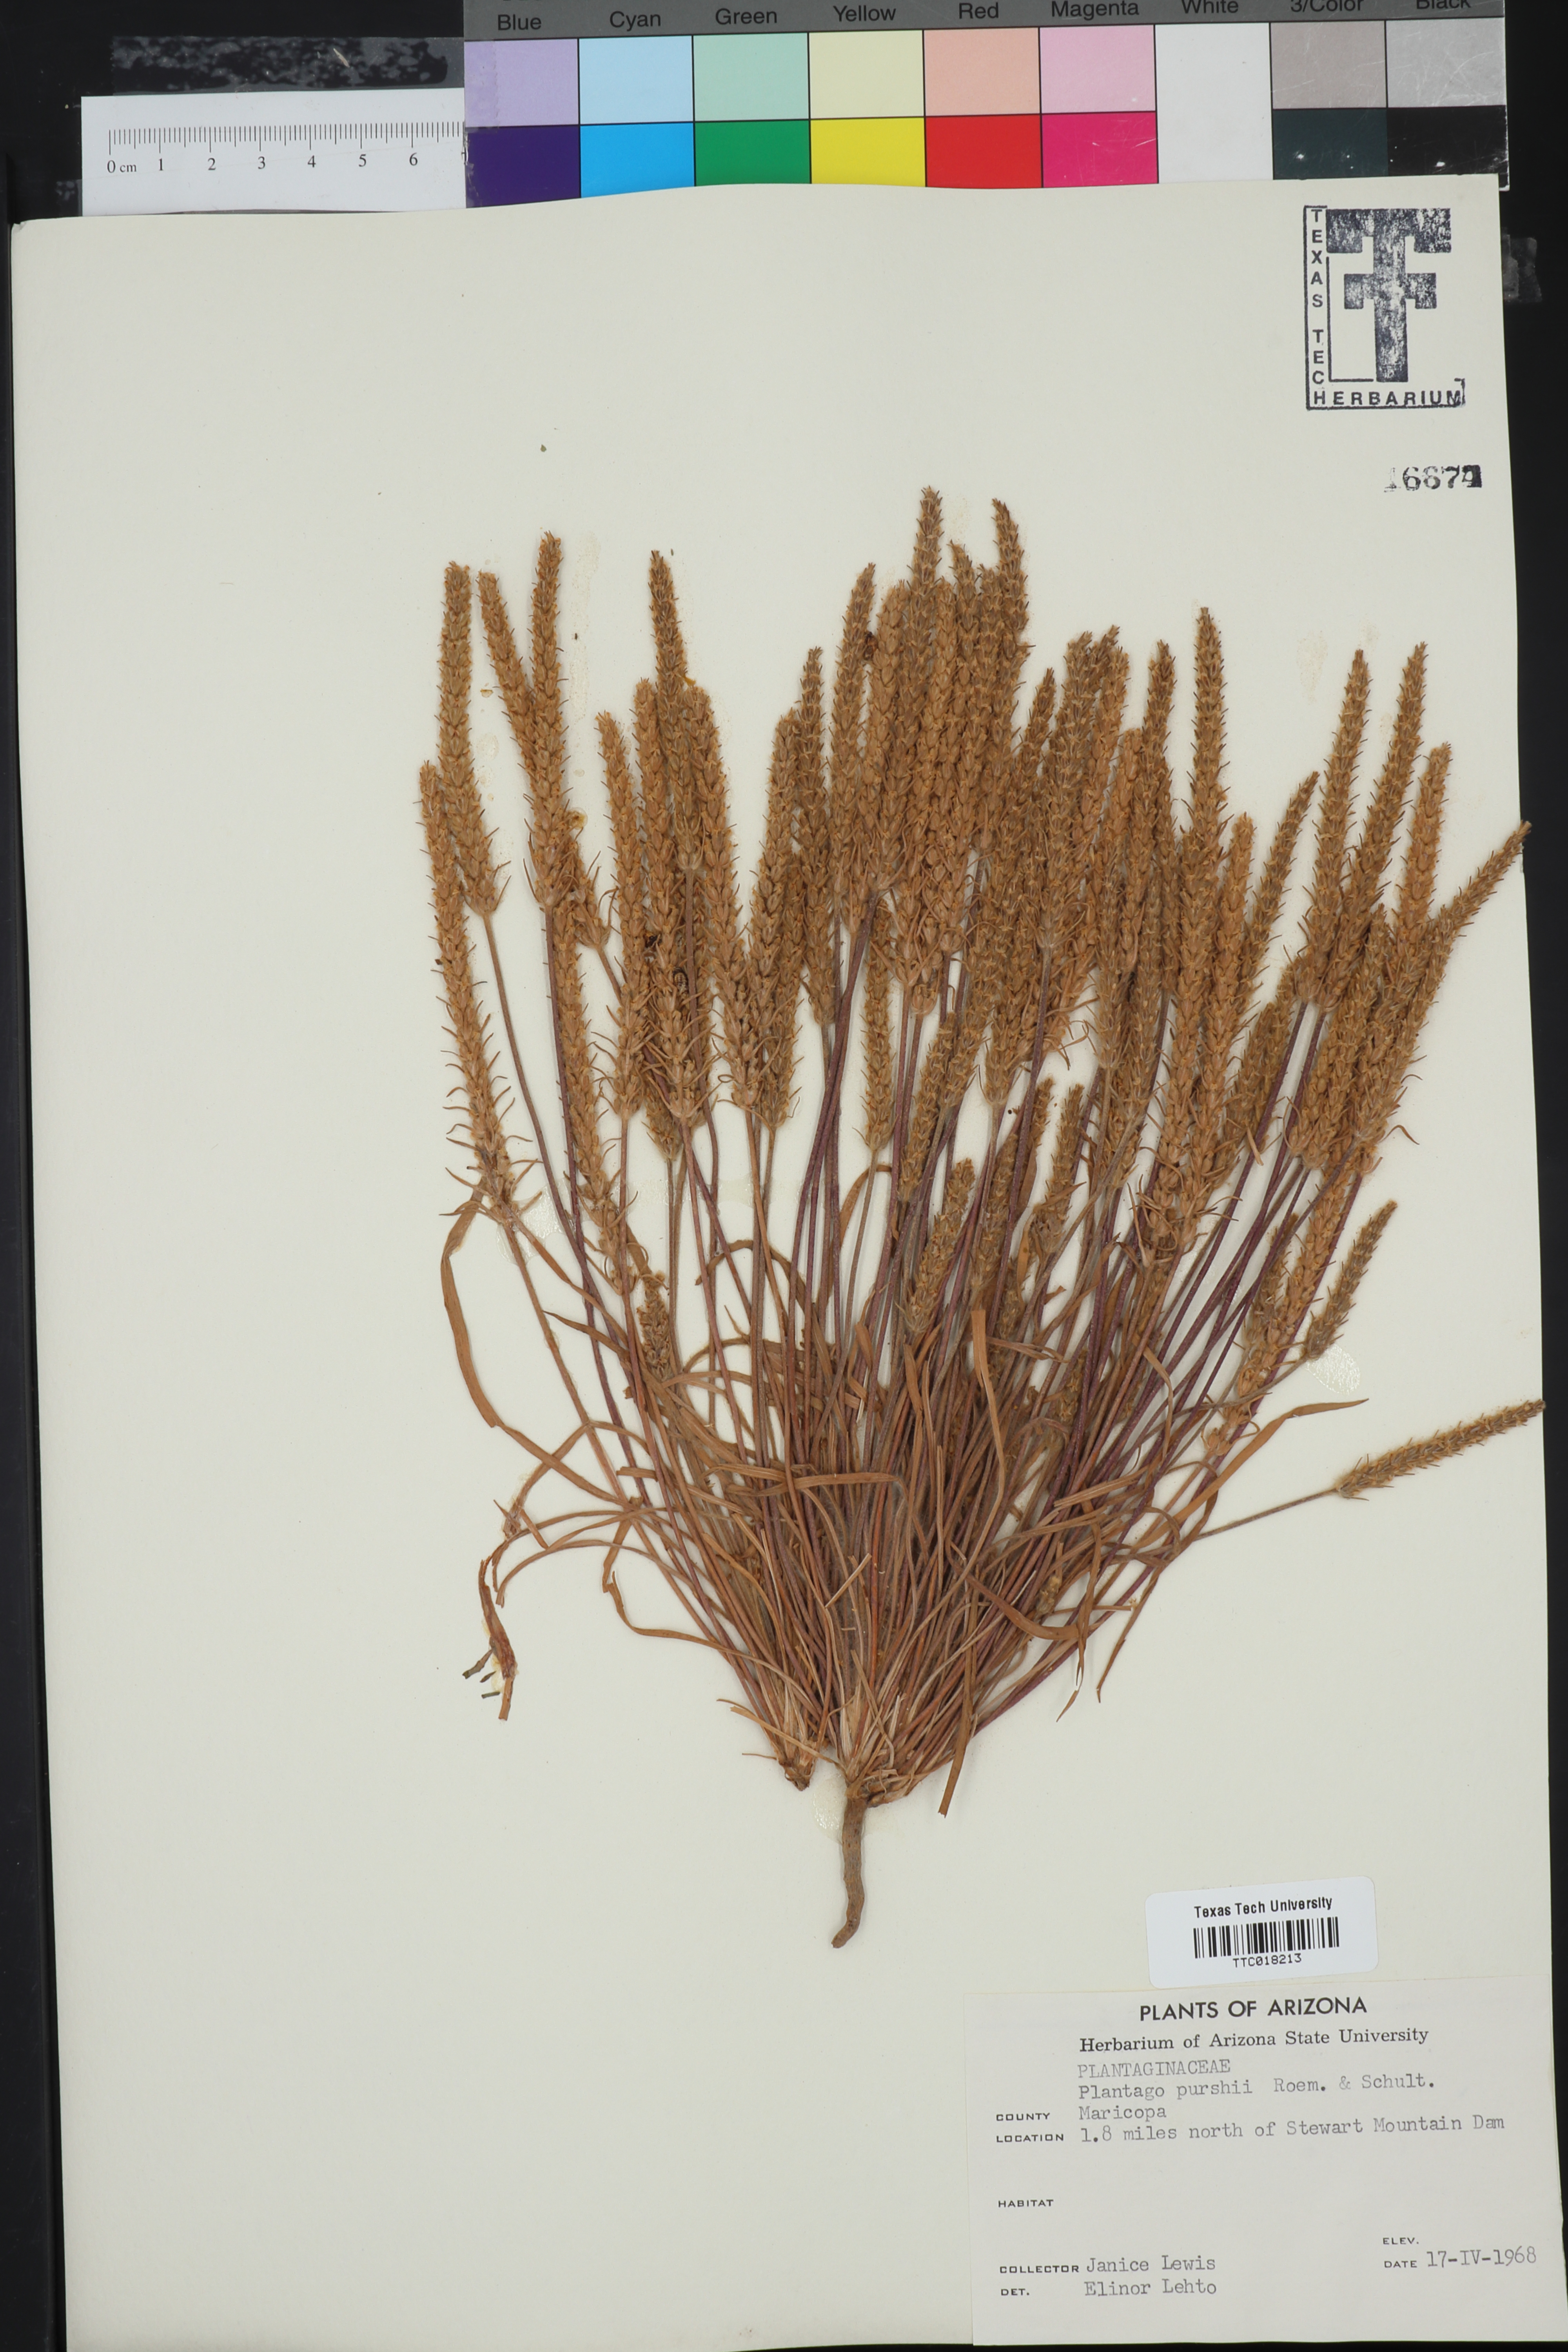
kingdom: Plantae
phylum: Tracheophyta
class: Magnoliopsida
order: Lamiales
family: Plantaginaceae
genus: Plantago
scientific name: Plantago patagonica
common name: Patagonia indian-wheat
